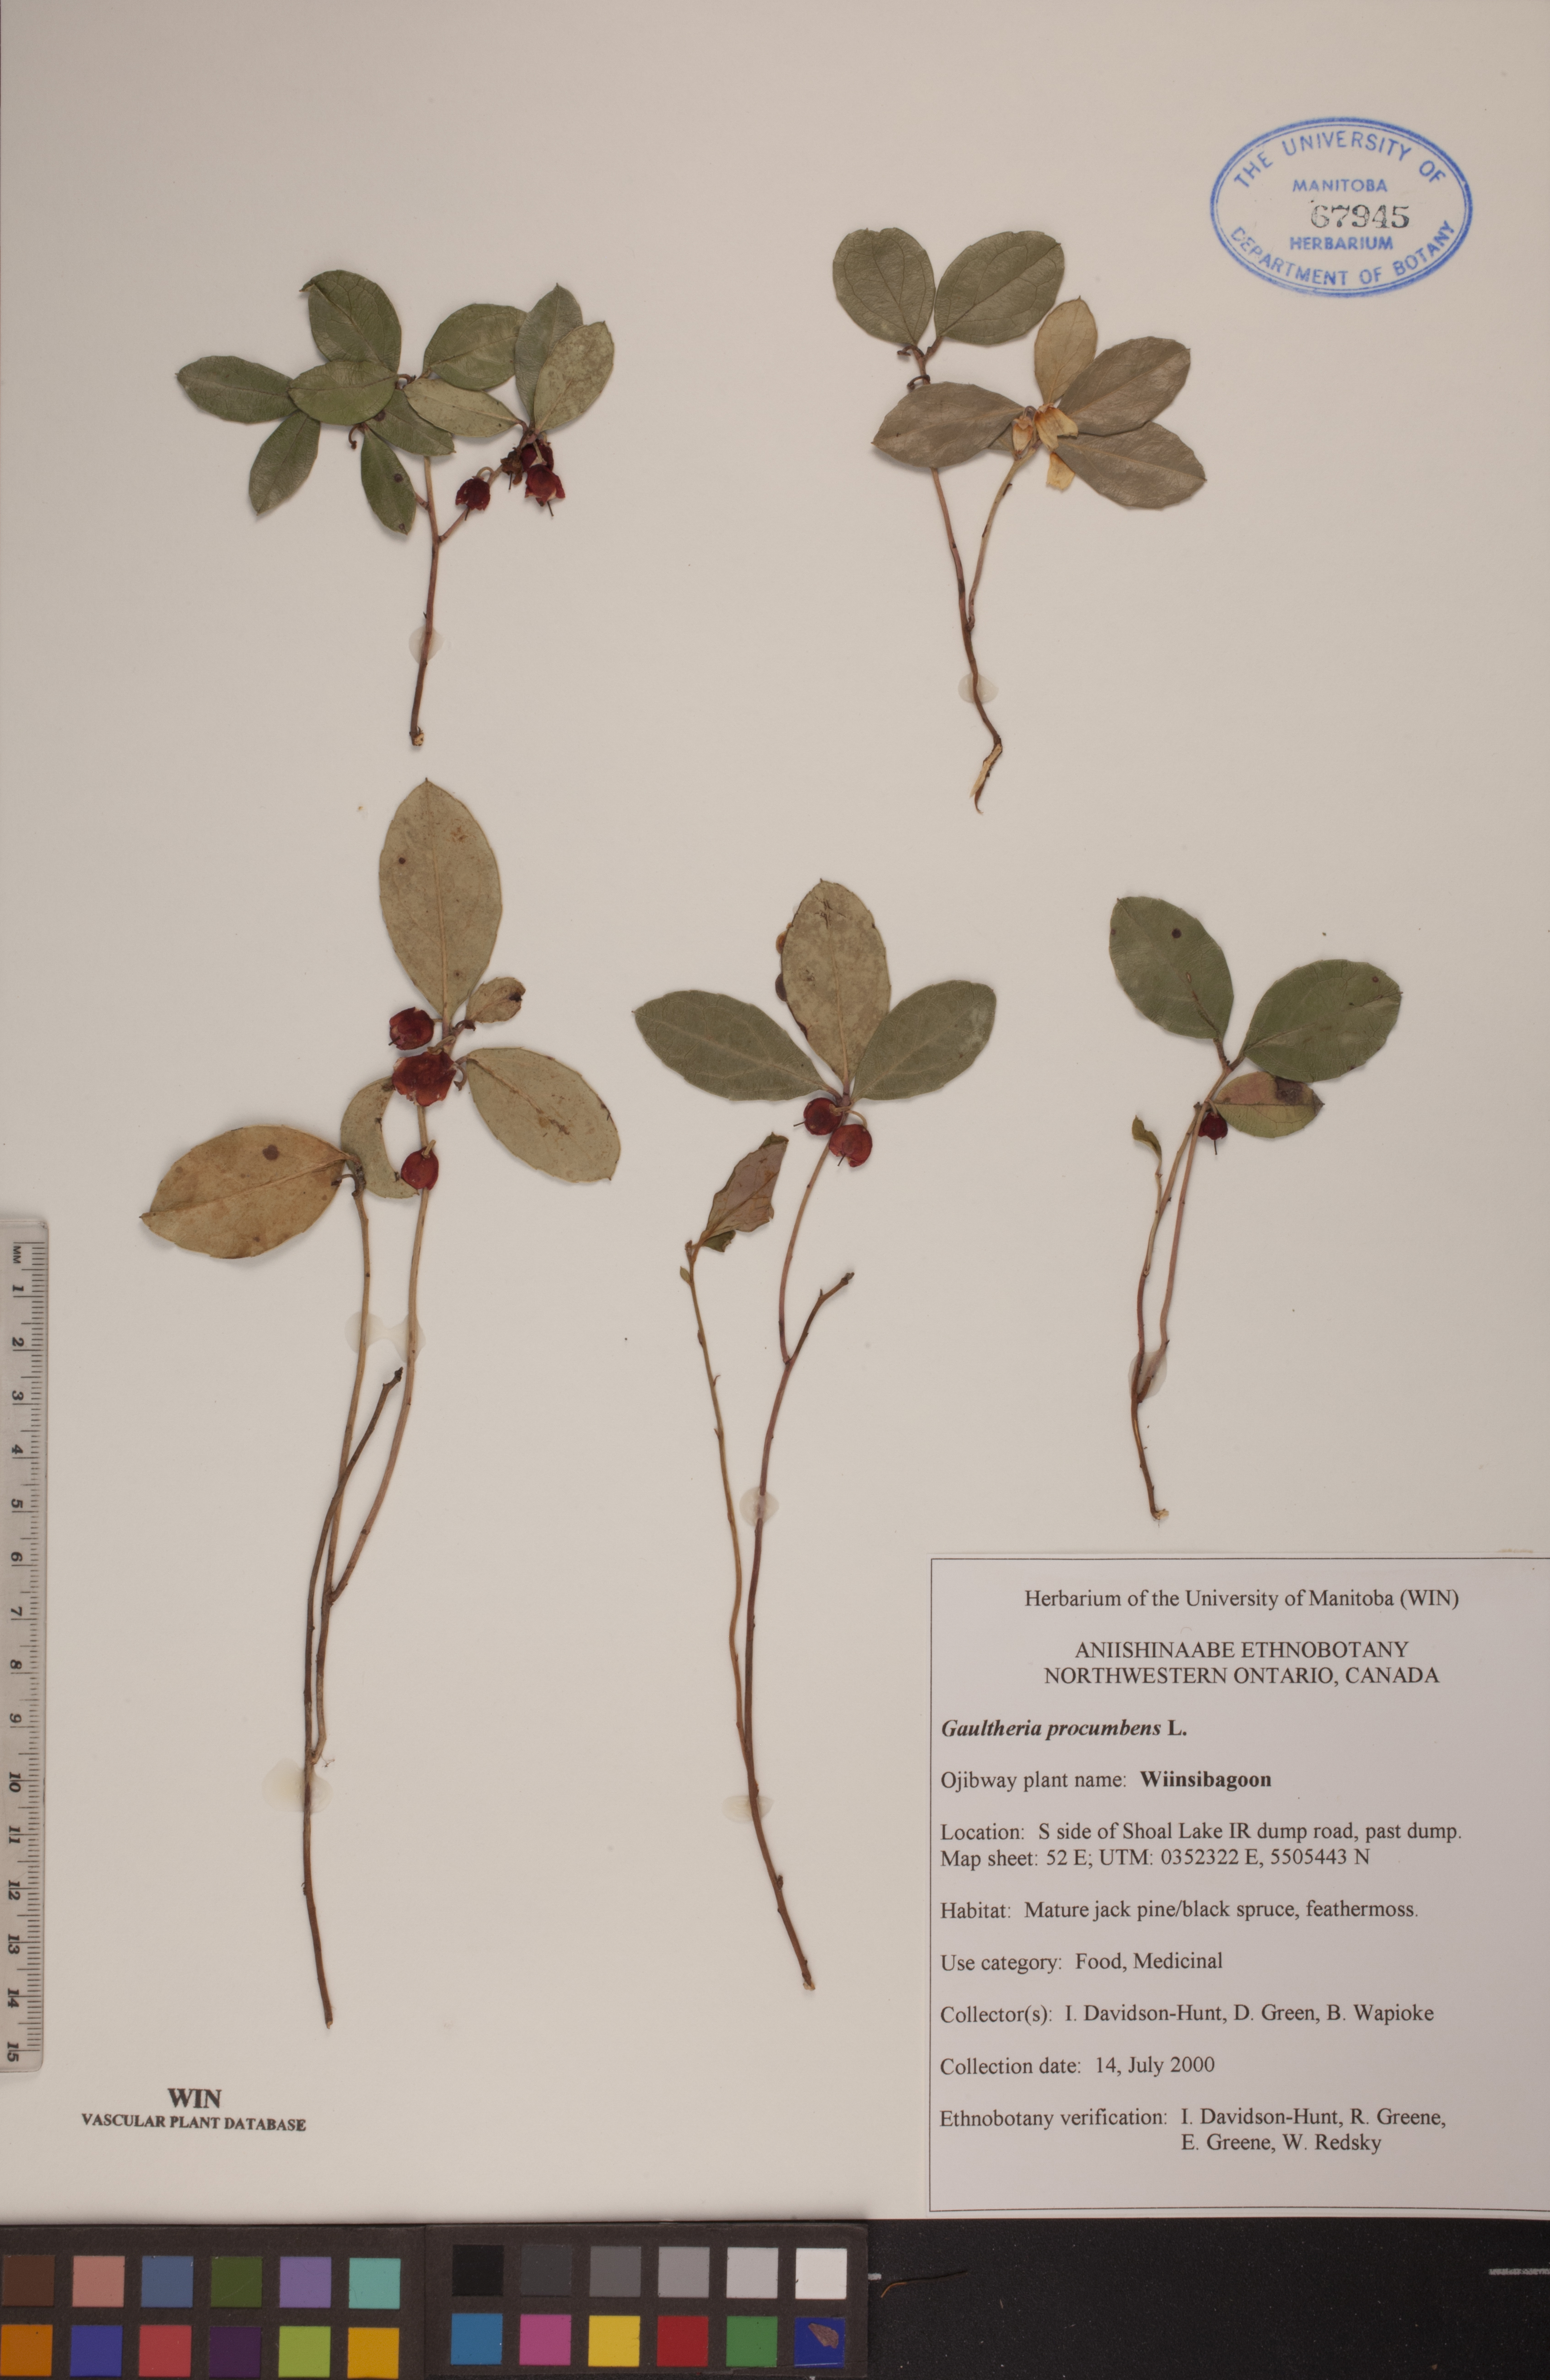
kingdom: Plantae
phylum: Tracheophyta
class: Magnoliopsida
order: Ericales
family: Ericaceae
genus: Gaultheria
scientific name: Gaultheria procumbens
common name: Checkerberry
